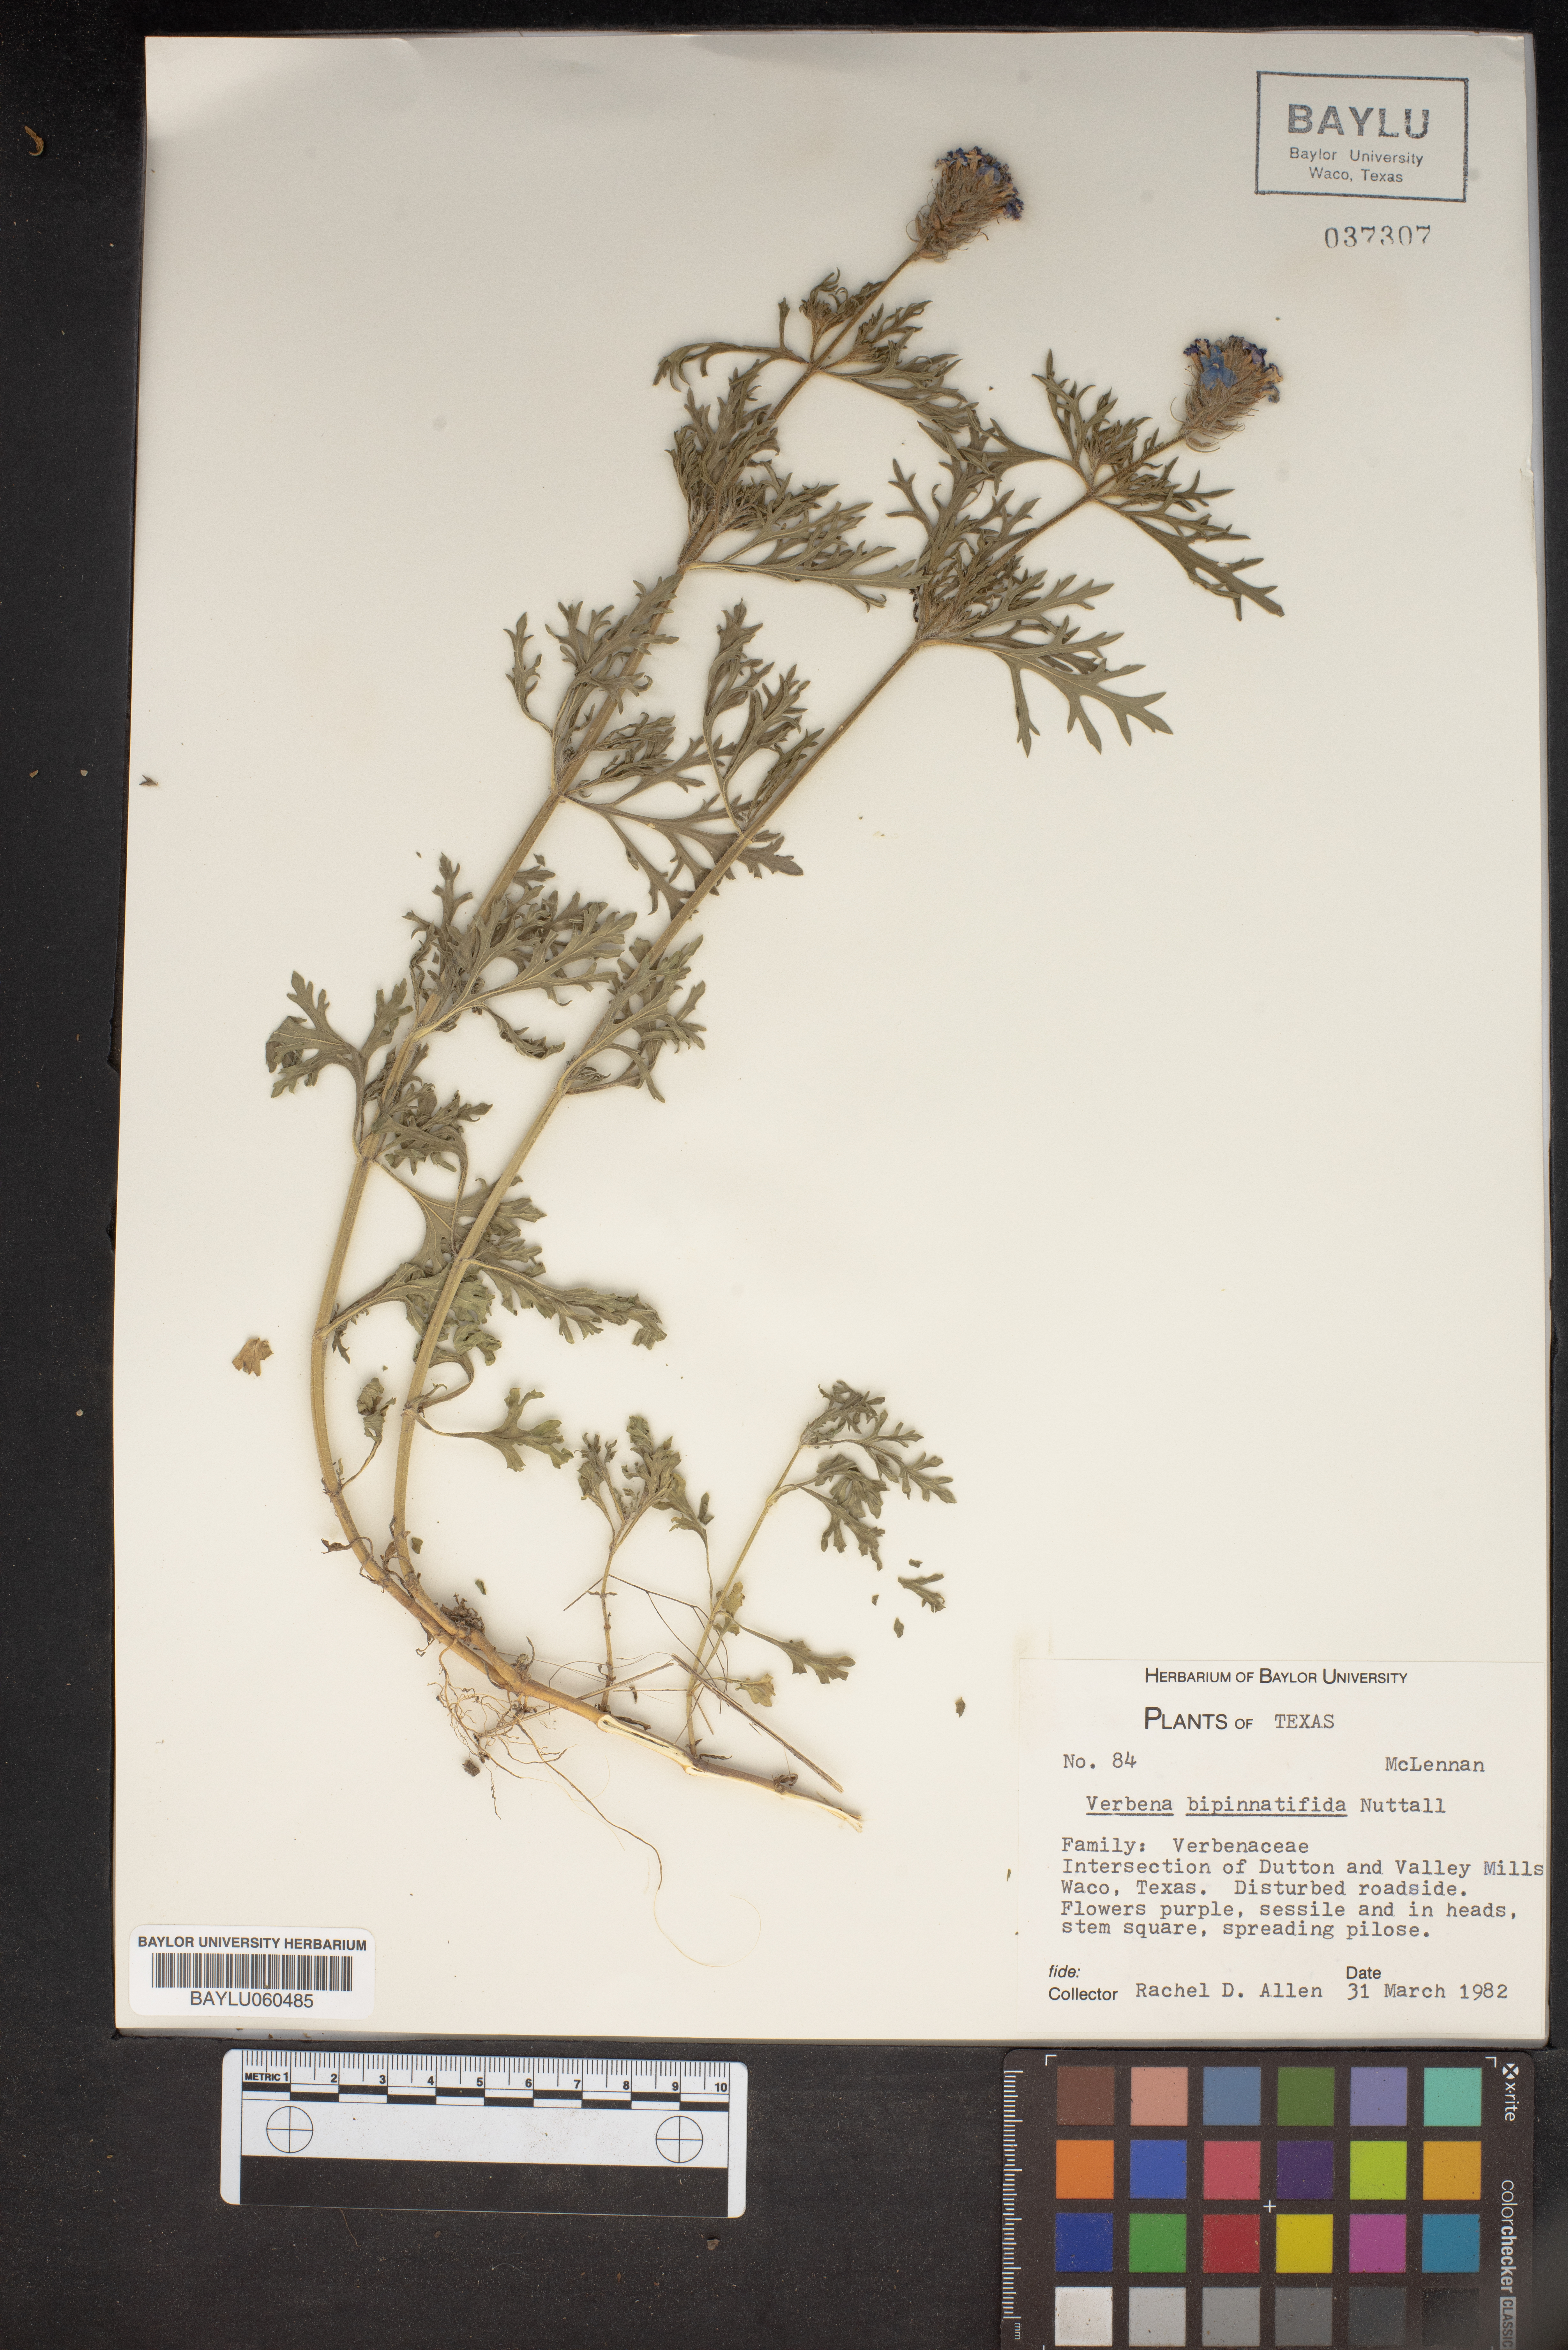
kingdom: Plantae
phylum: Tracheophyta
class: Magnoliopsida
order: Lamiales
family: Verbenaceae
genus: Verbena
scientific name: Verbena bipinnatifida
